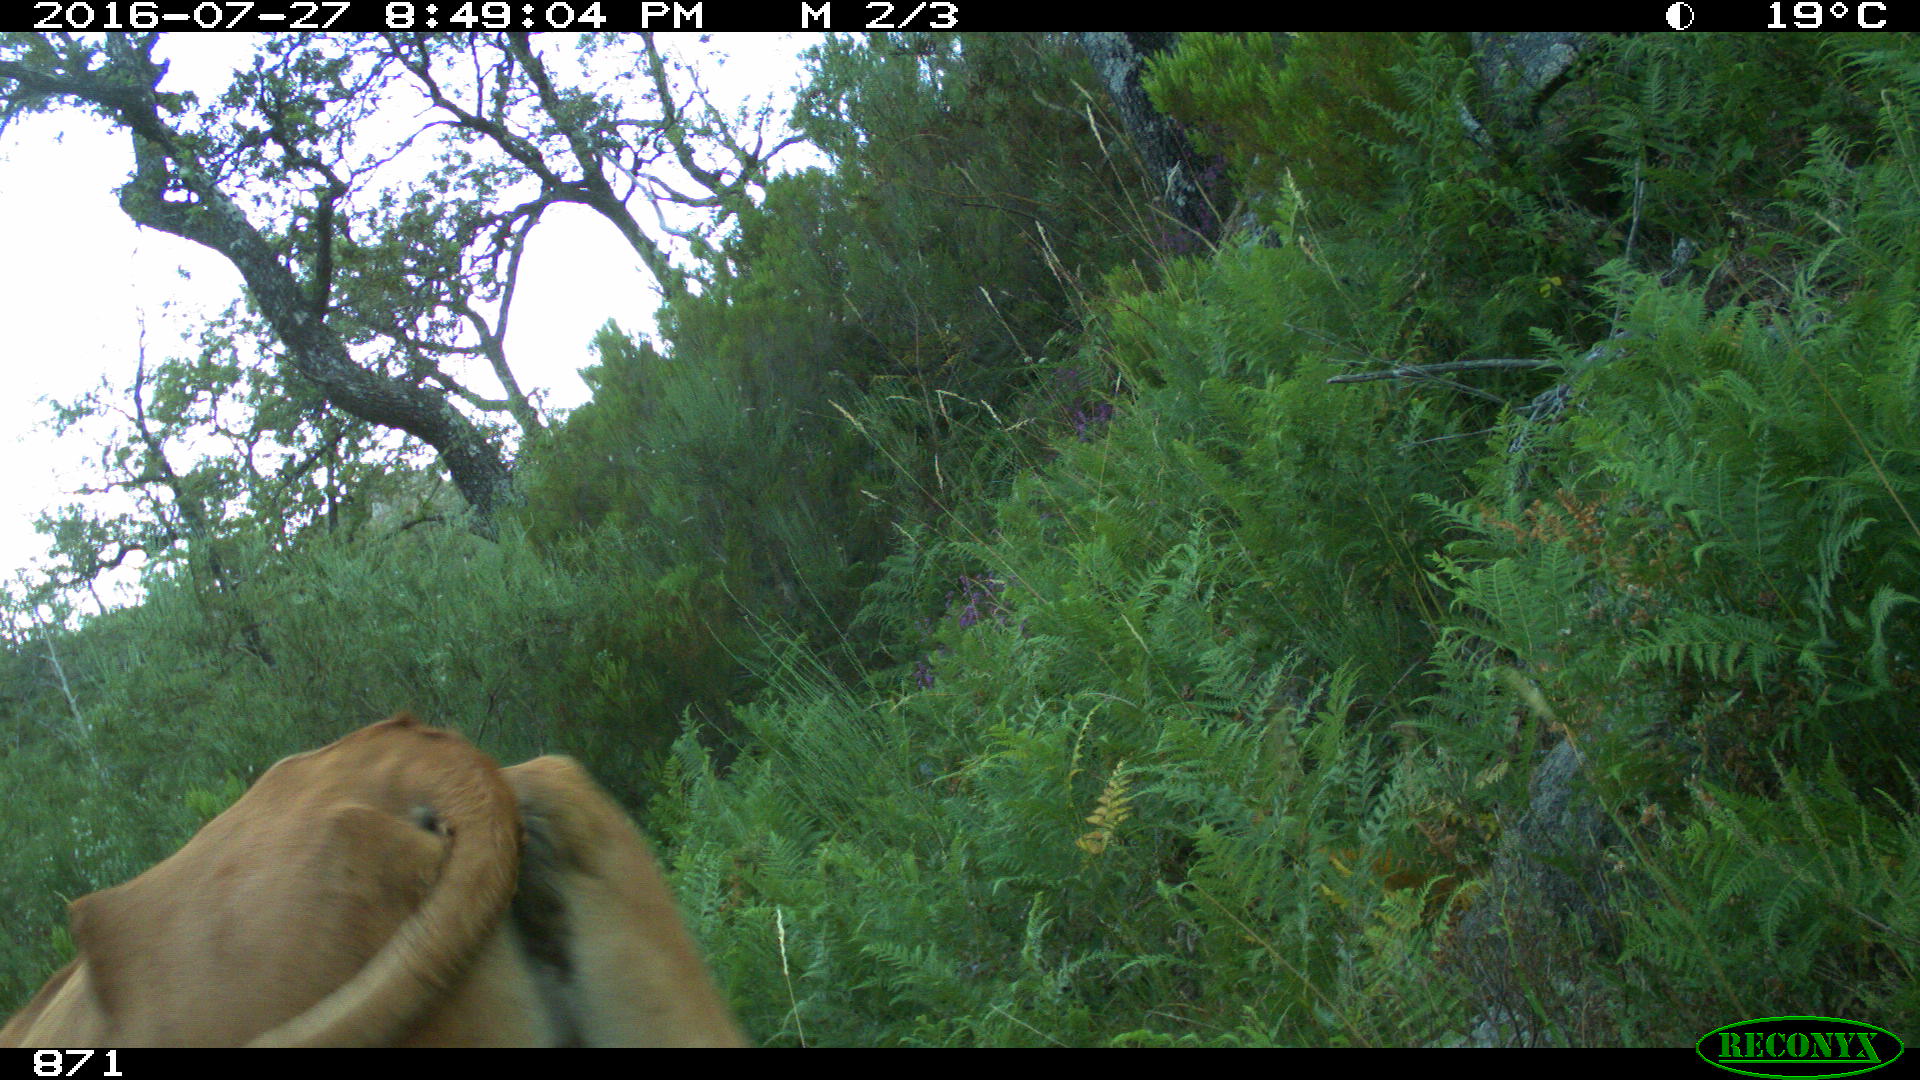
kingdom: Animalia
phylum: Chordata
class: Mammalia
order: Artiodactyla
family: Bovidae
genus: Bos
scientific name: Bos taurus
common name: Domesticated cattle
